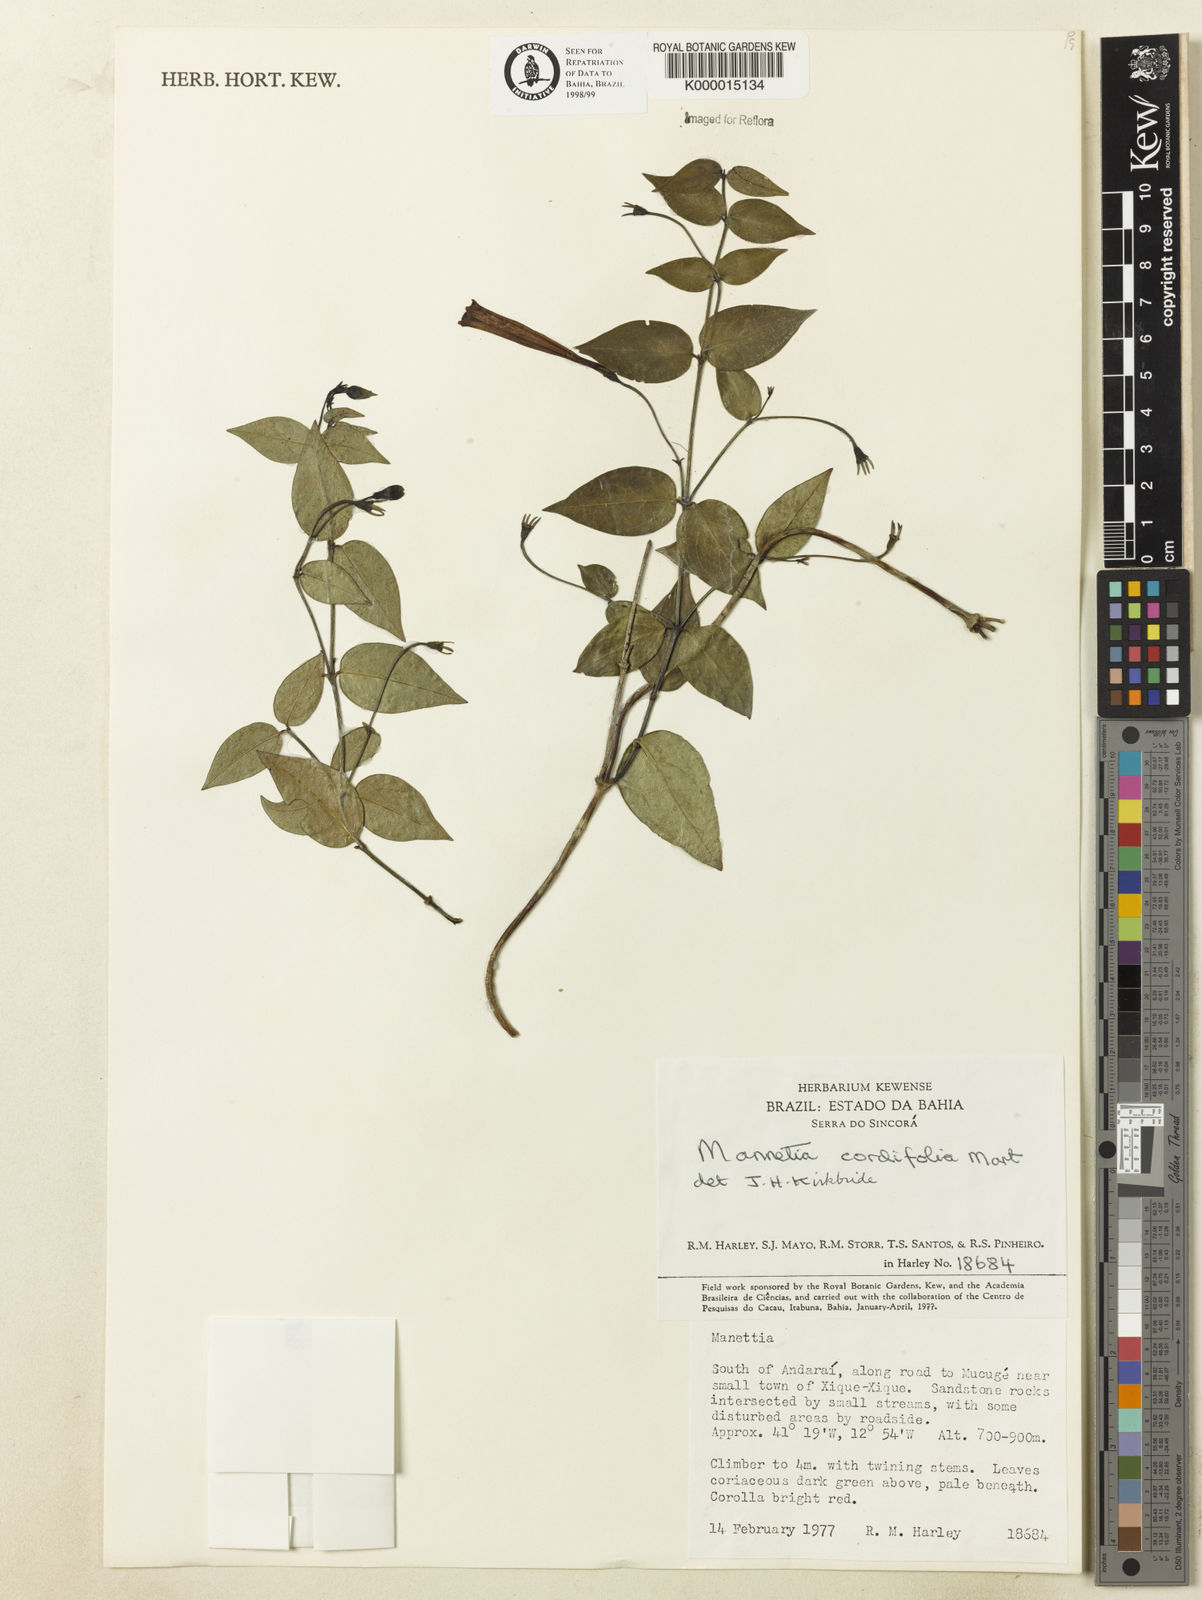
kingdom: Plantae
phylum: Tracheophyta
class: Magnoliopsida
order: Gentianales
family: Rubiaceae
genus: Manettia
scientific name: Manettia cordifolia
